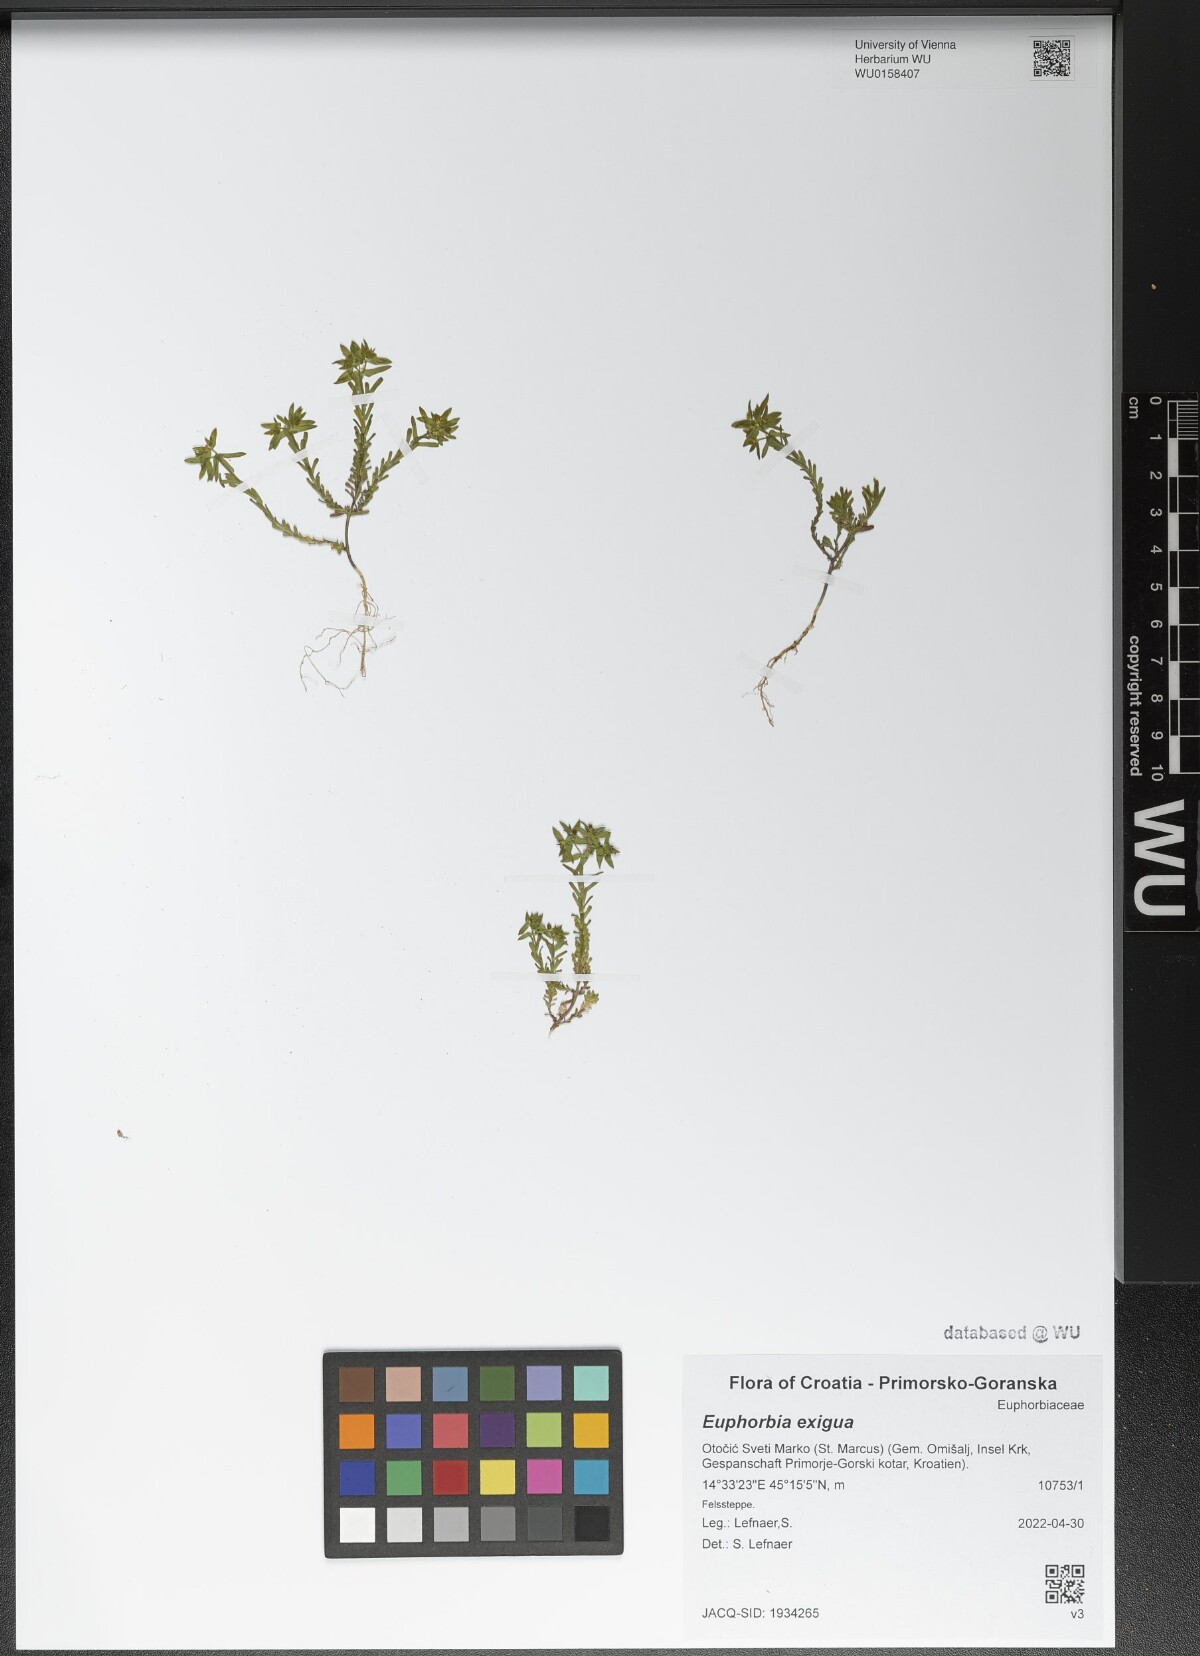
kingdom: Plantae
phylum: Tracheophyta
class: Magnoliopsida
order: Malpighiales
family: Euphorbiaceae
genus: Euphorbia
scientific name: Euphorbia exigua
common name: Dwarf spurge
